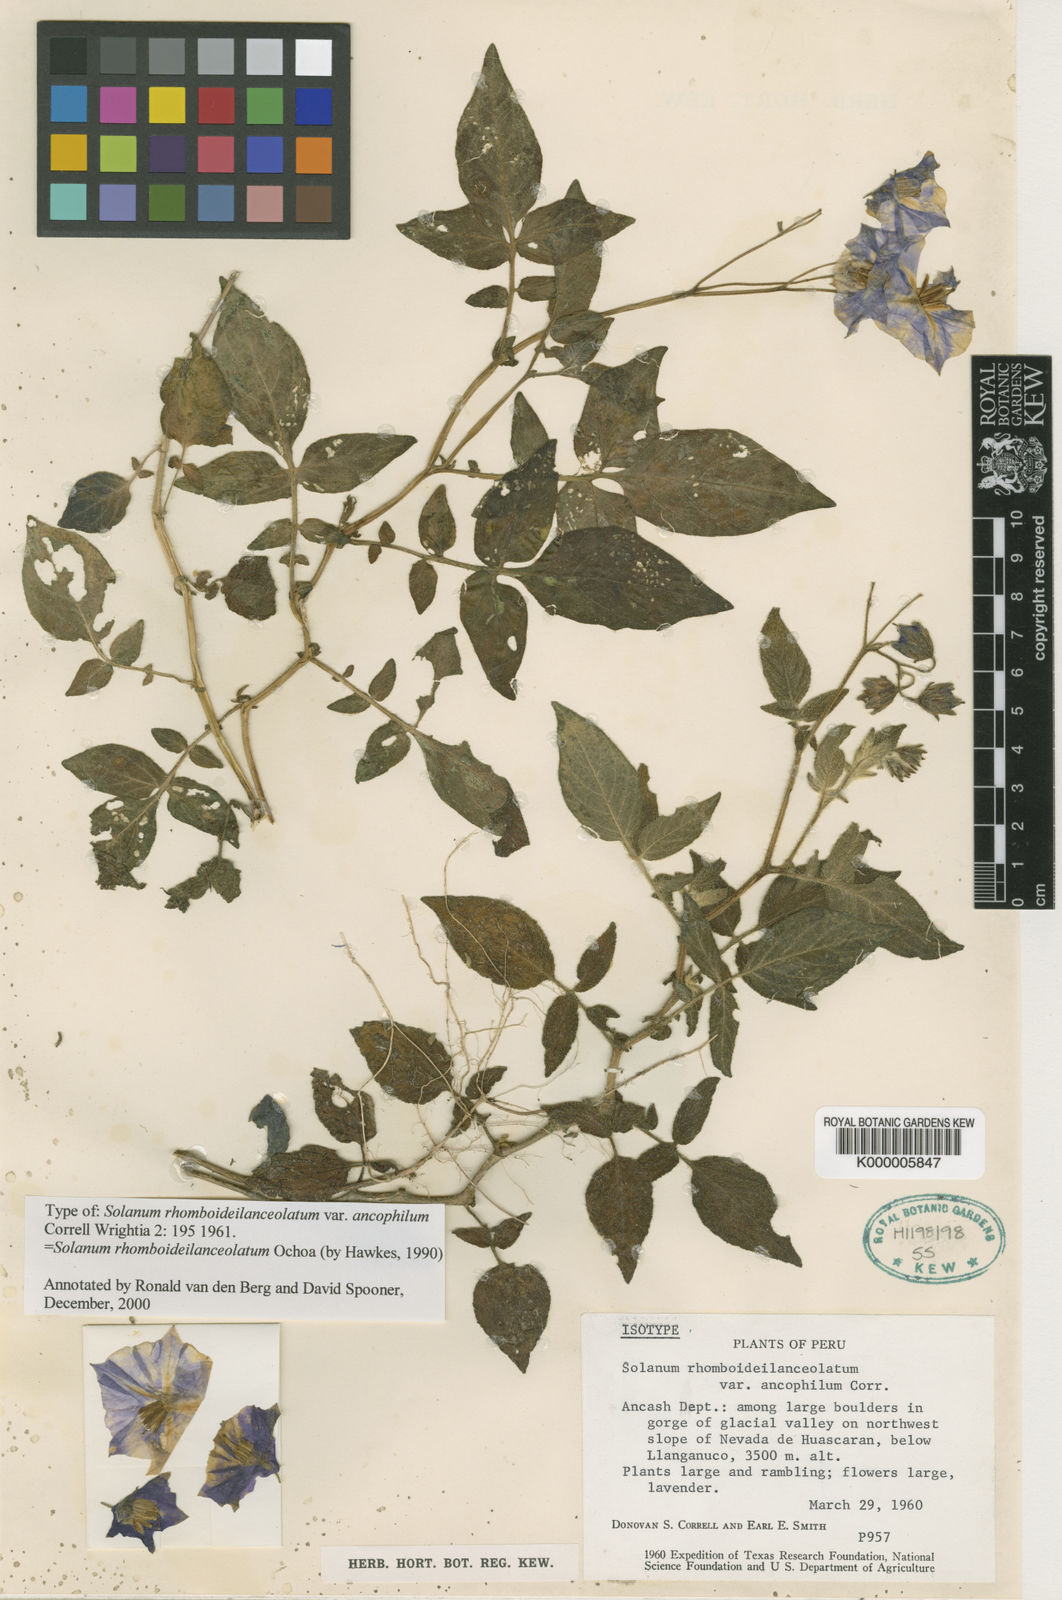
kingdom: Plantae
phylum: Tracheophyta
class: Magnoliopsida
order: Solanales
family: Solanaceae
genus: Solanum
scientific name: Solanum rhomboideilanceolatum
